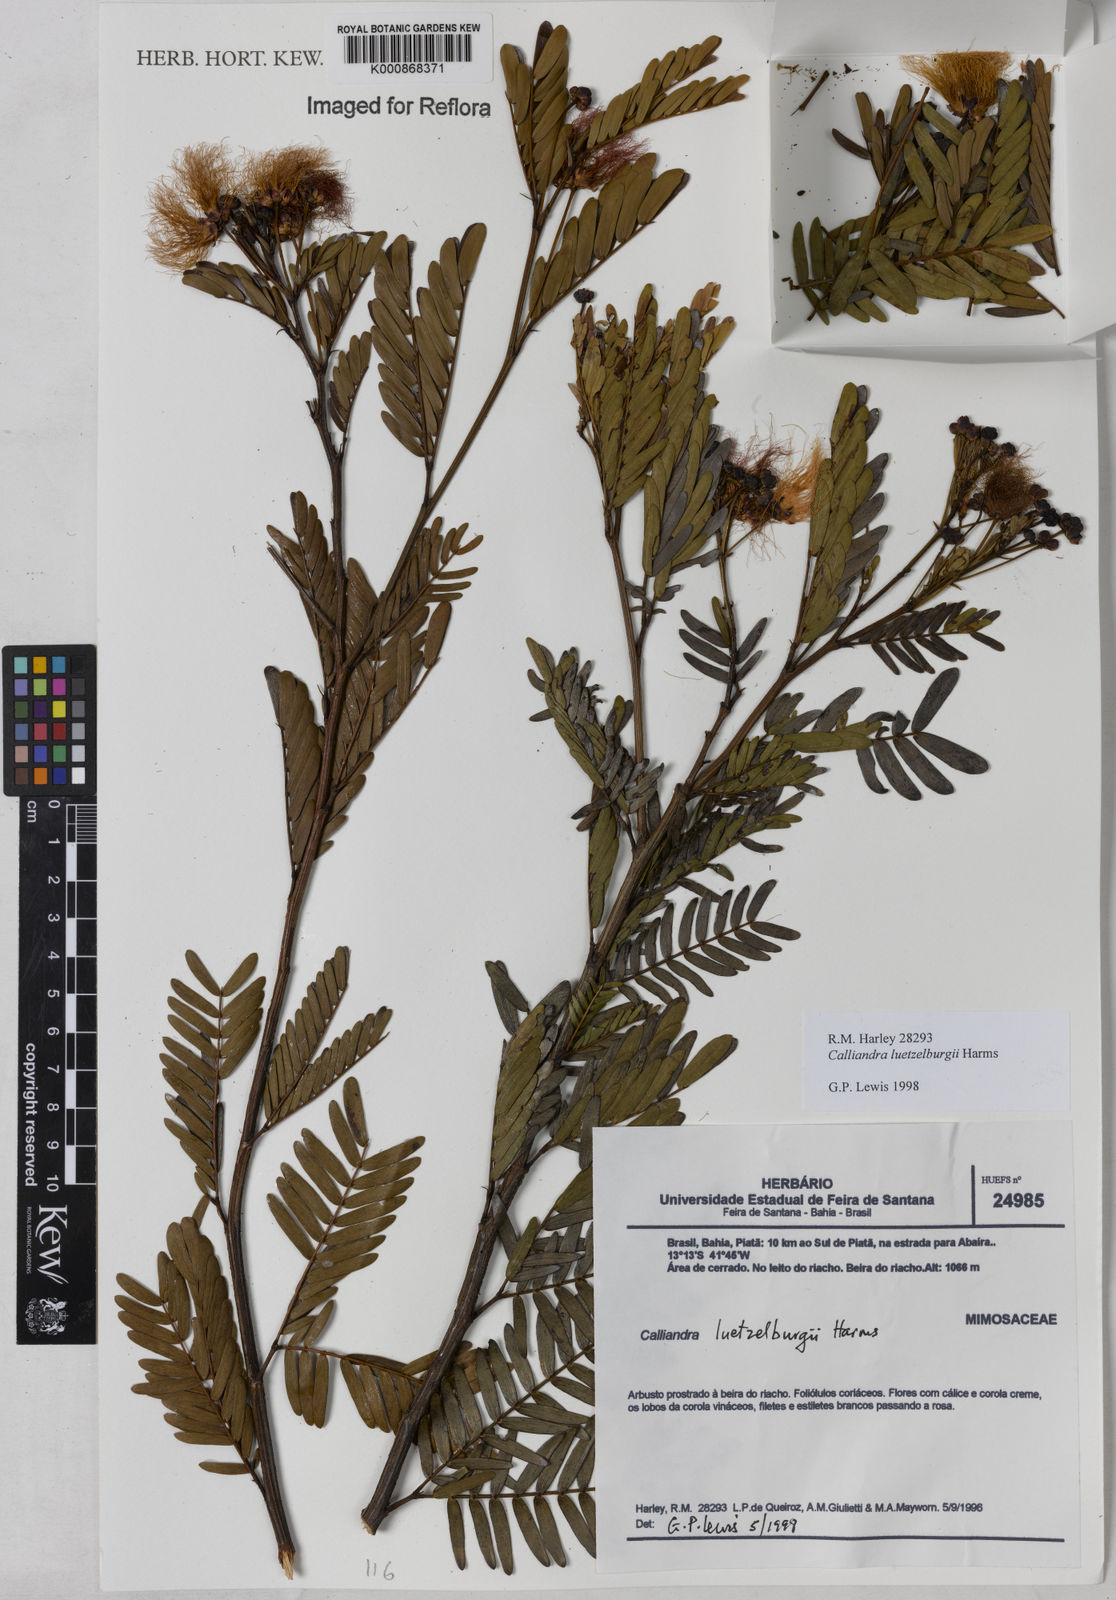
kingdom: Plantae
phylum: Tracheophyta
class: Magnoliopsida
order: Fabales
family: Fabaceae
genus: Calliandra
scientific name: Calliandra luetzelburgii
